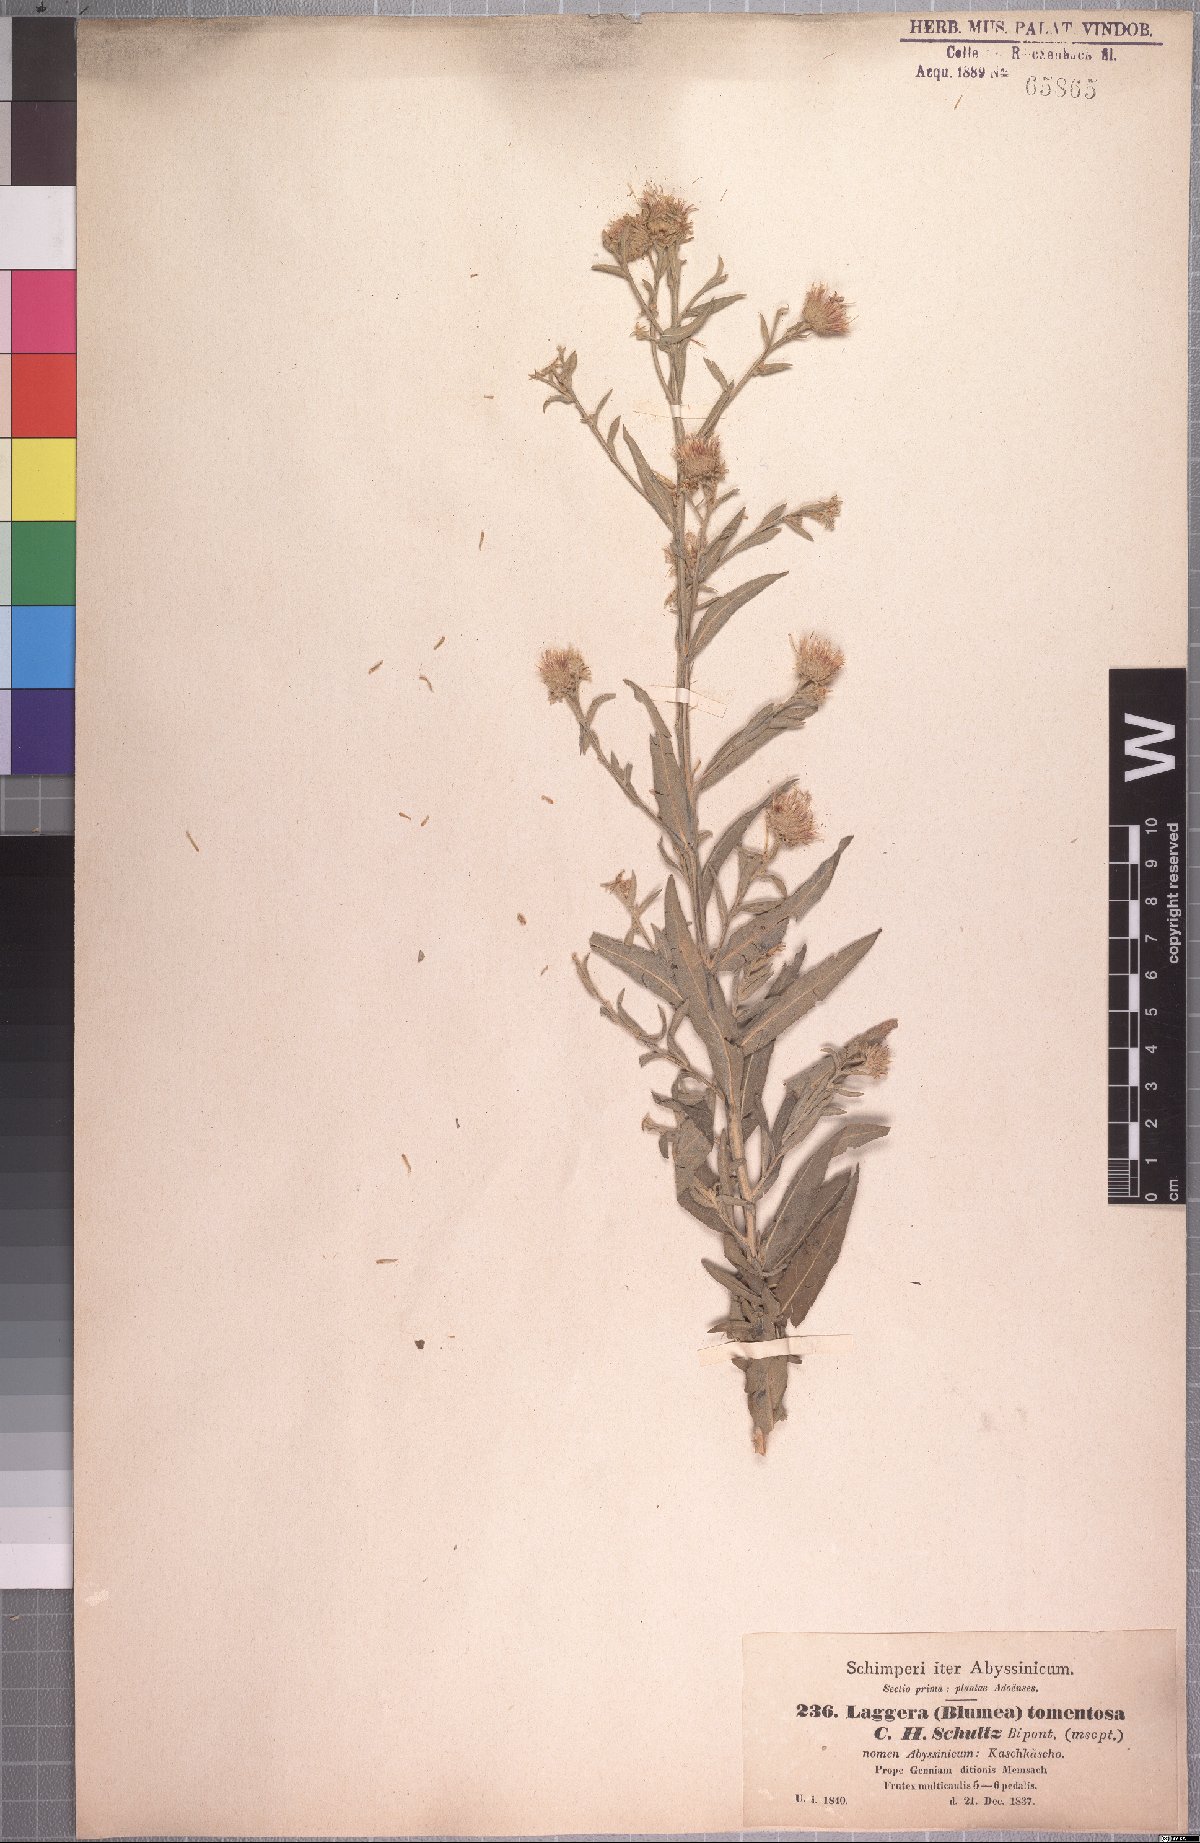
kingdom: Plantae
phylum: Tracheophyta
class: Magnoliopsida
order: Asterales
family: Asteraceae
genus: Laggera
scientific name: Laggera tomentosa
